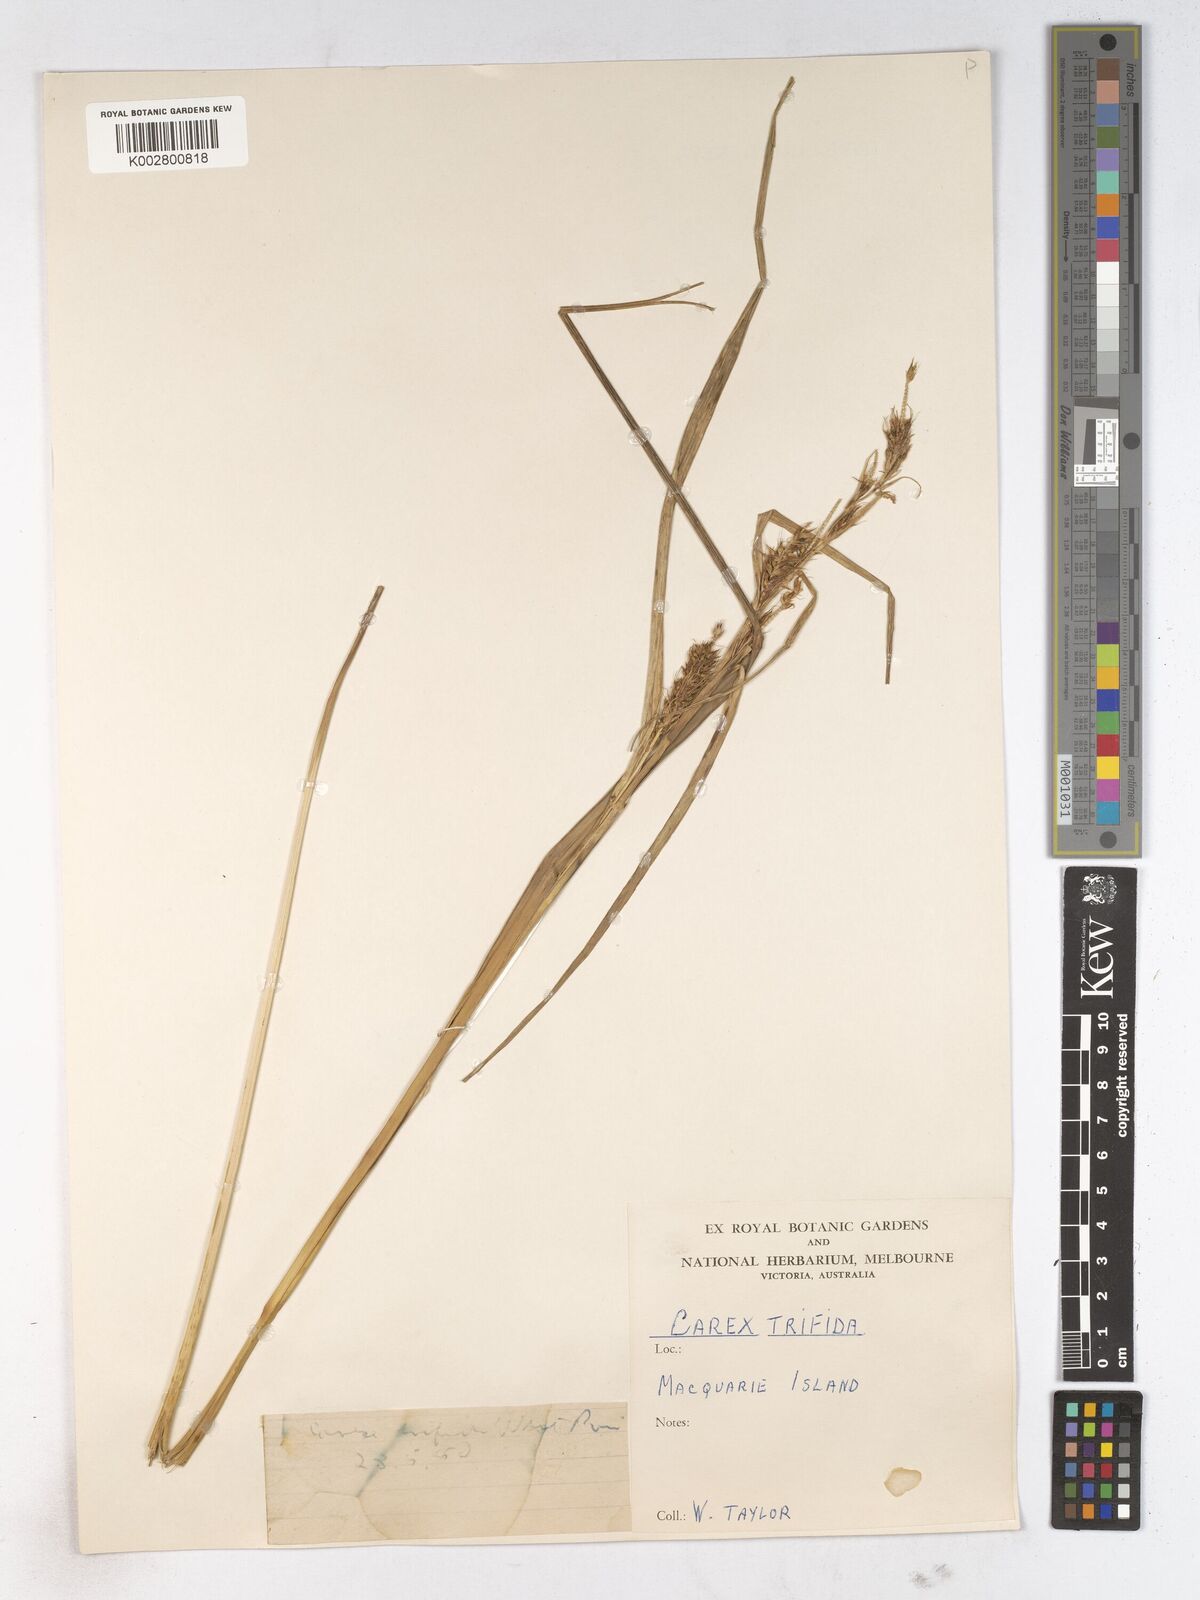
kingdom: Plantae
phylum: Tracheophyta
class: Liliopsida
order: Poales
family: Cyperaceae
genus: Carex
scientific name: Carex trifida
